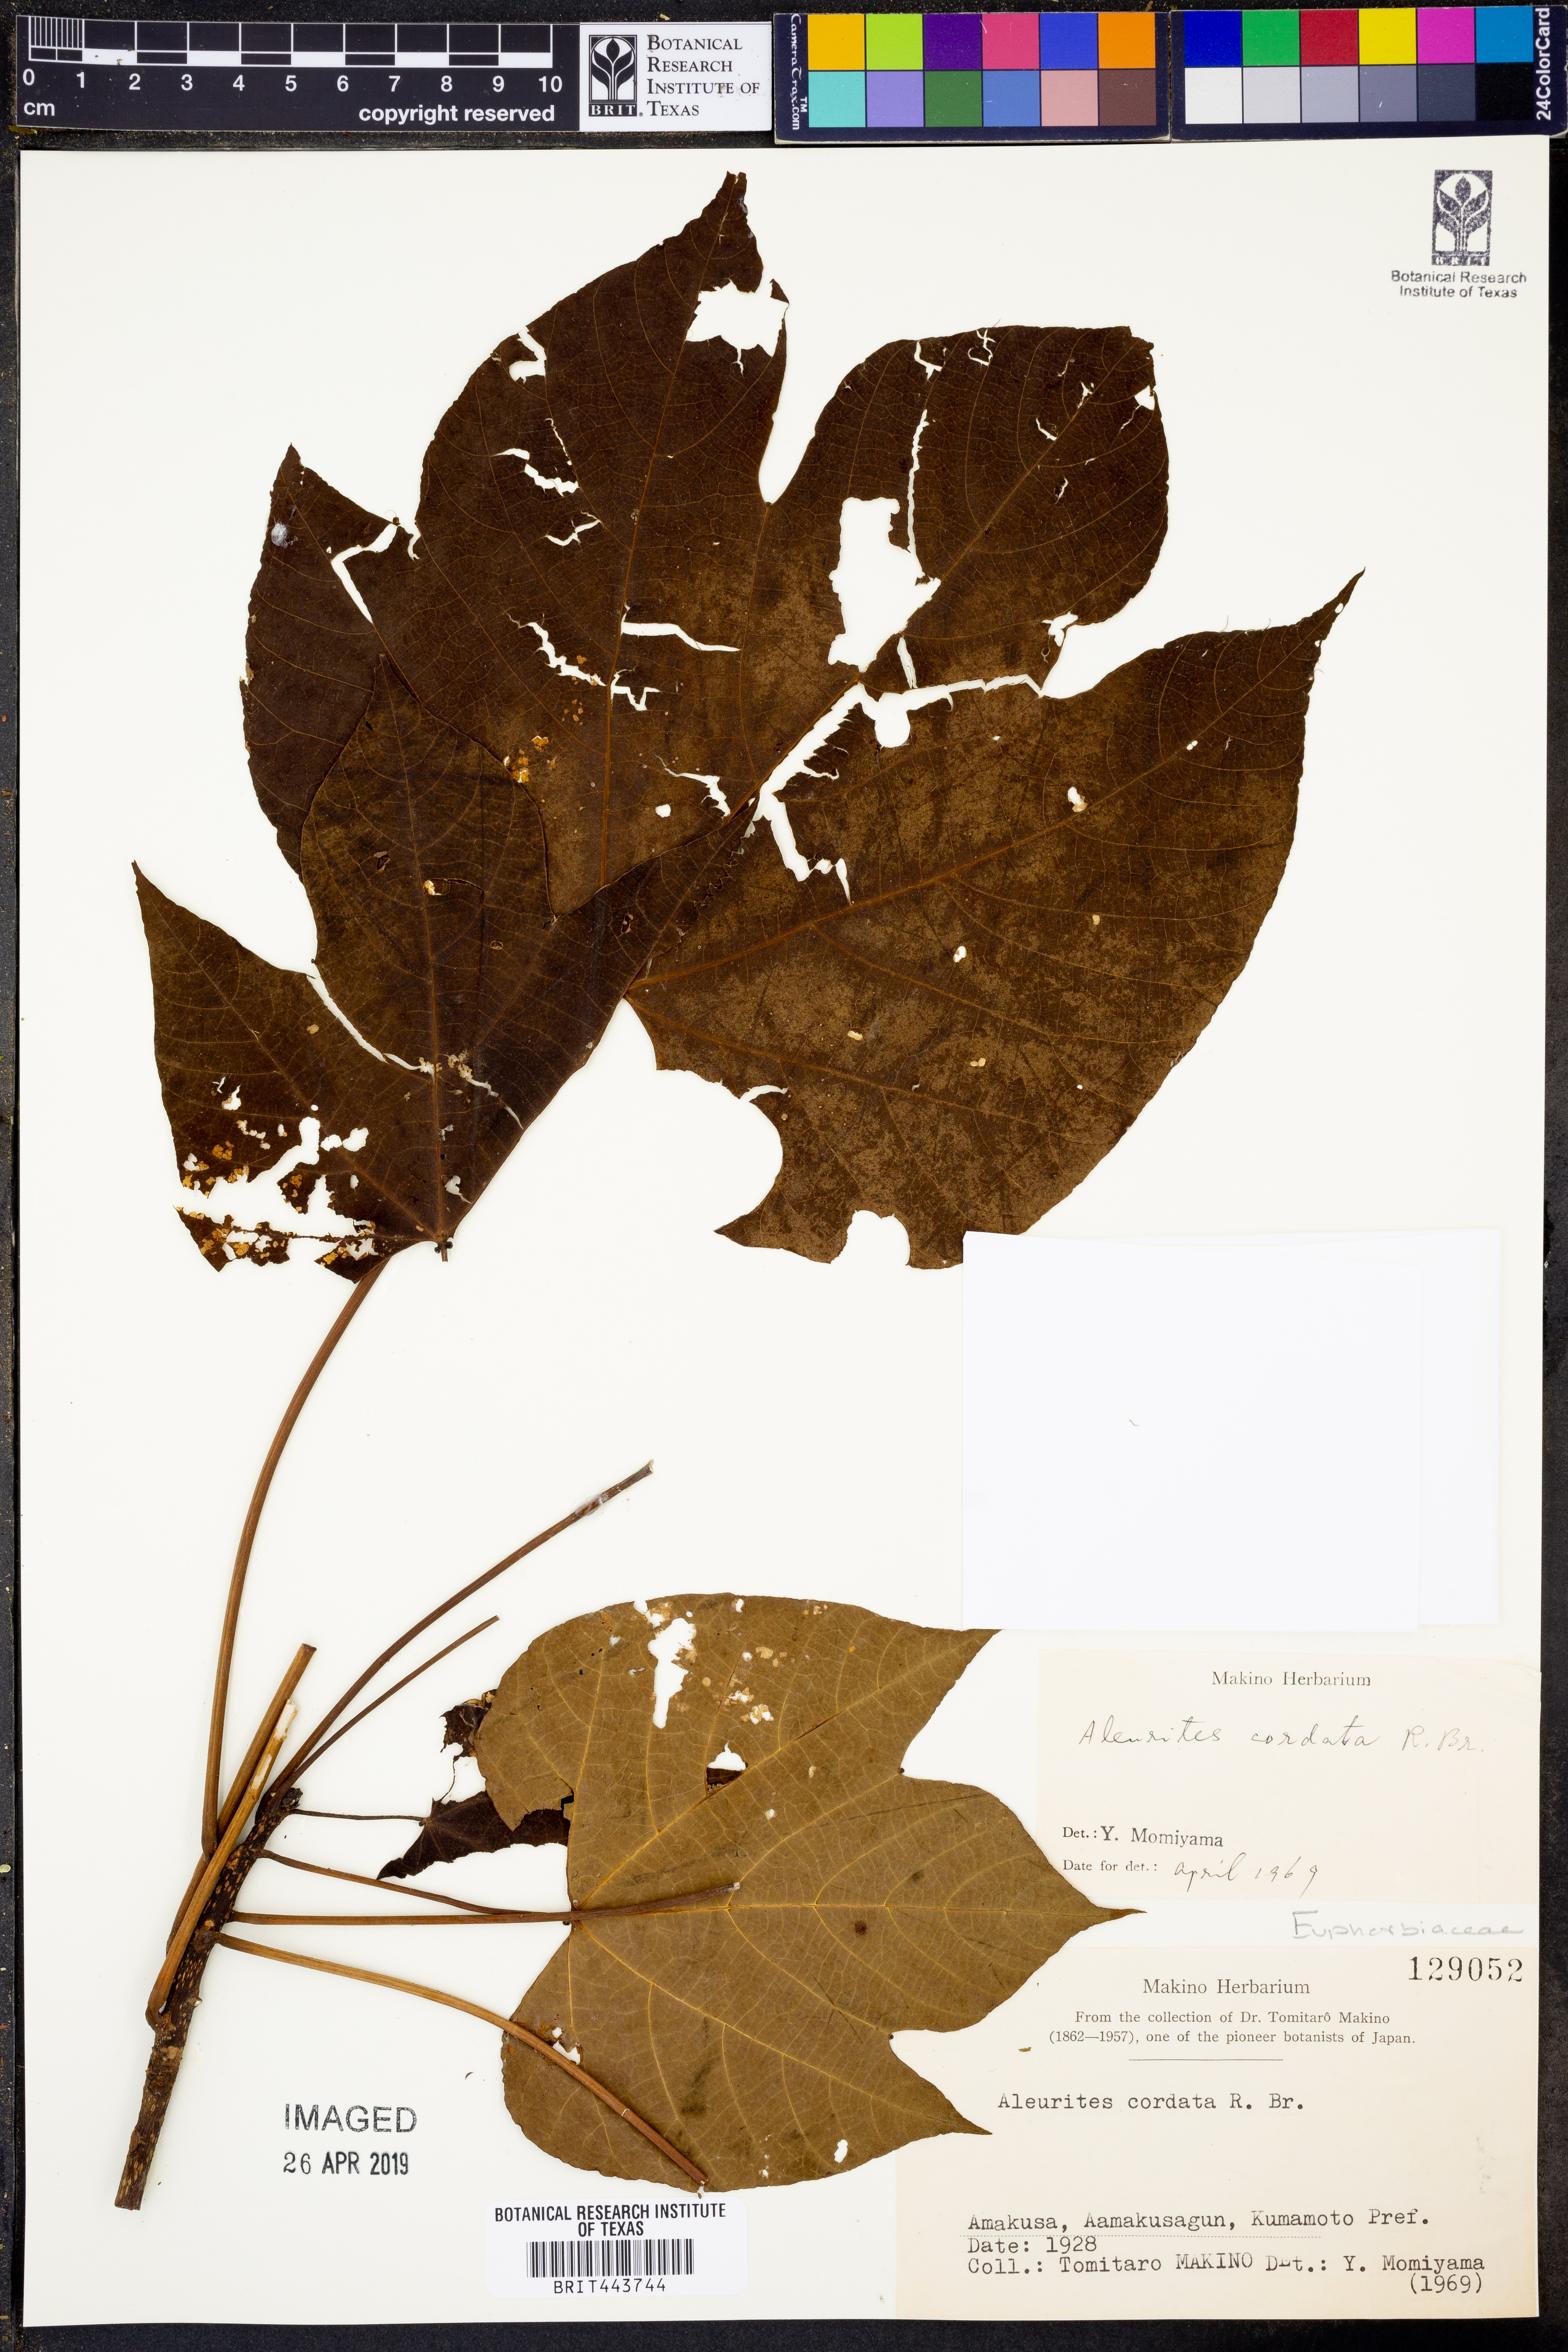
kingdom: Plantae
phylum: Tracheophyta
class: Magnoliopsida
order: Malpighiales
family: Euphorbiaceae
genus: Vernicia
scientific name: Vernicia cordata
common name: Japanese tung-oil-tree
